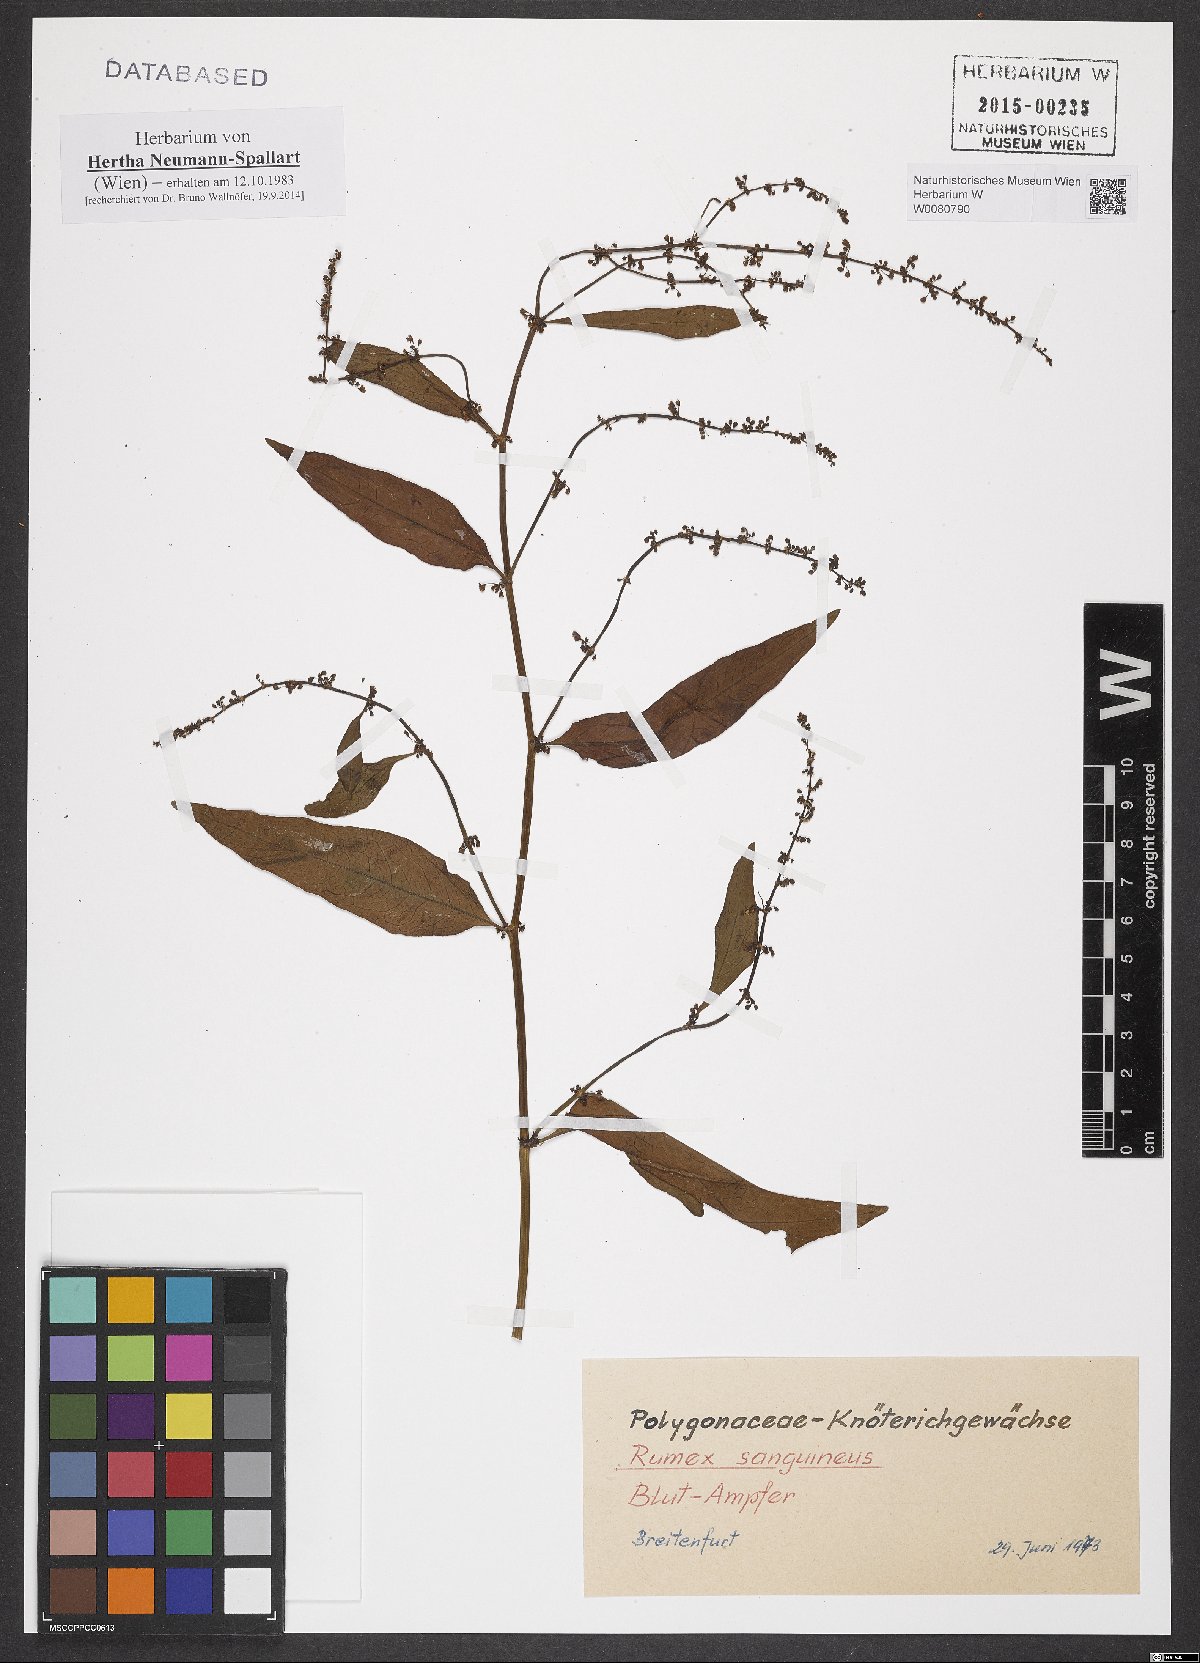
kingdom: Plantae
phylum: Tracheophyta
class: Magnoliopsida
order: Caryophyllales
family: Polygonaceae
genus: Rumex
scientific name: Rumex sanguineus
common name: Wood dock
